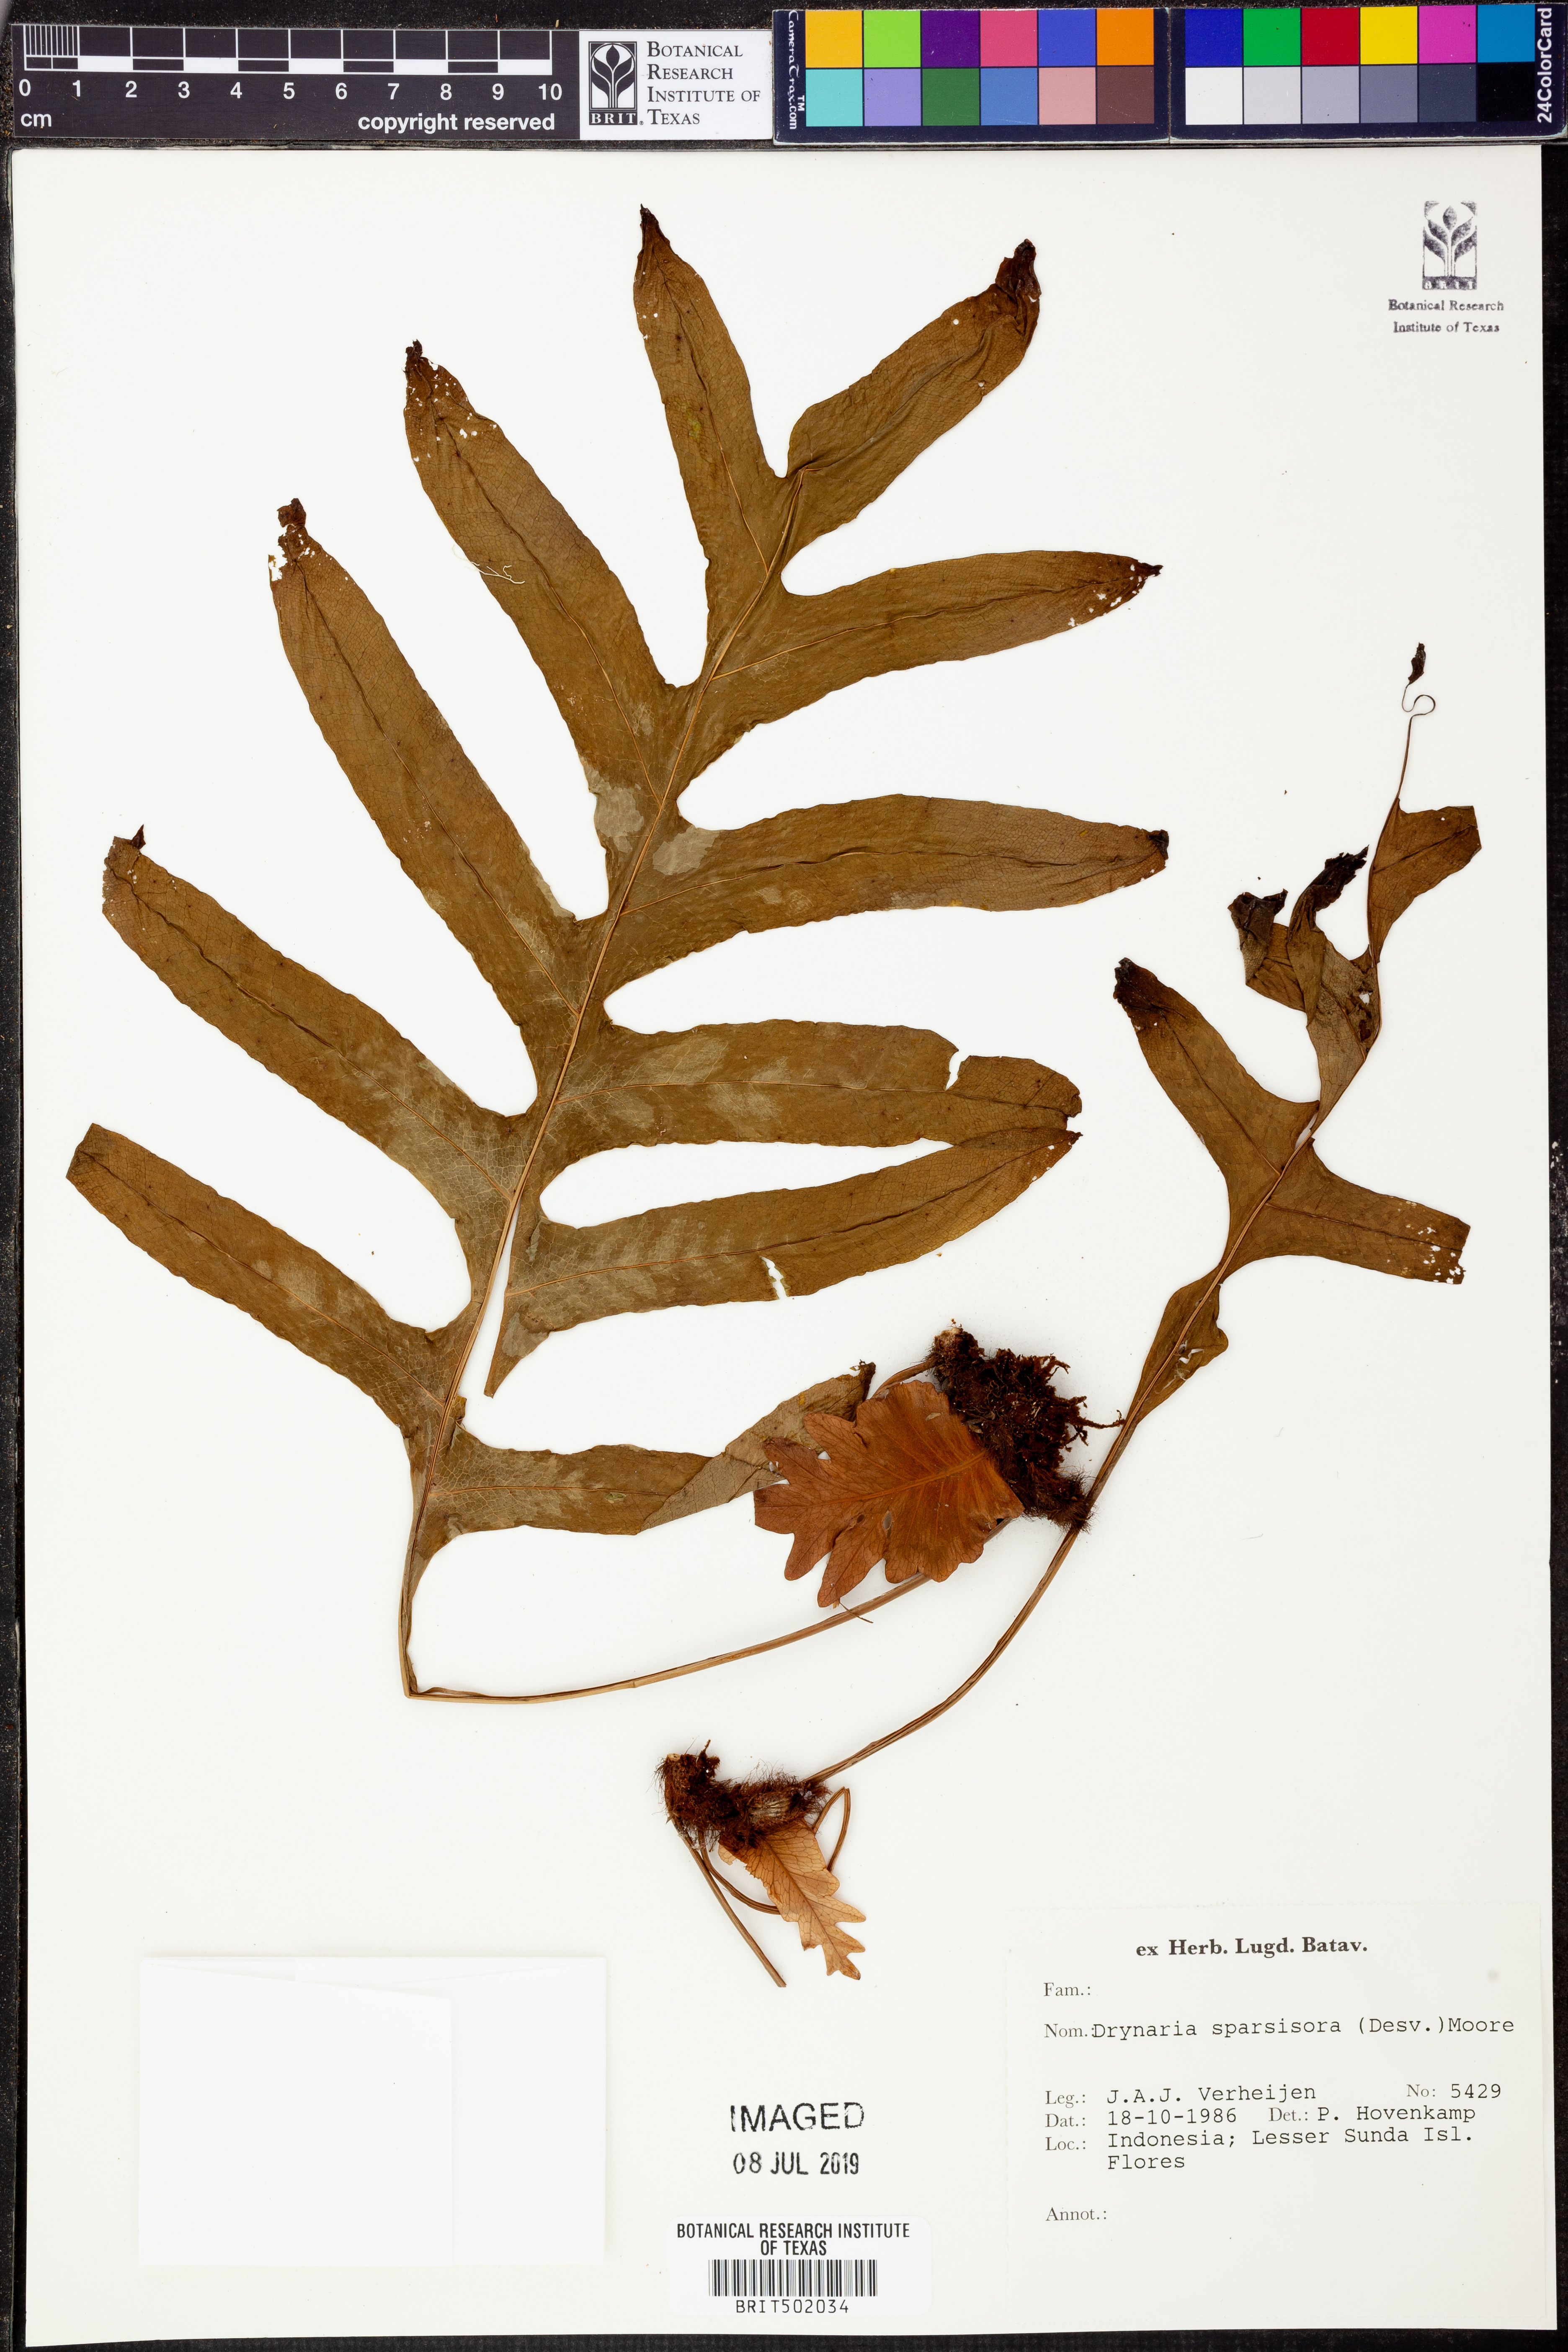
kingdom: Plantae
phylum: Tracheophyta
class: Polypodiopsida
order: Polypodiales
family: Polypodiaceae
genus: Drynaria
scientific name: Drynaria sparsisora
